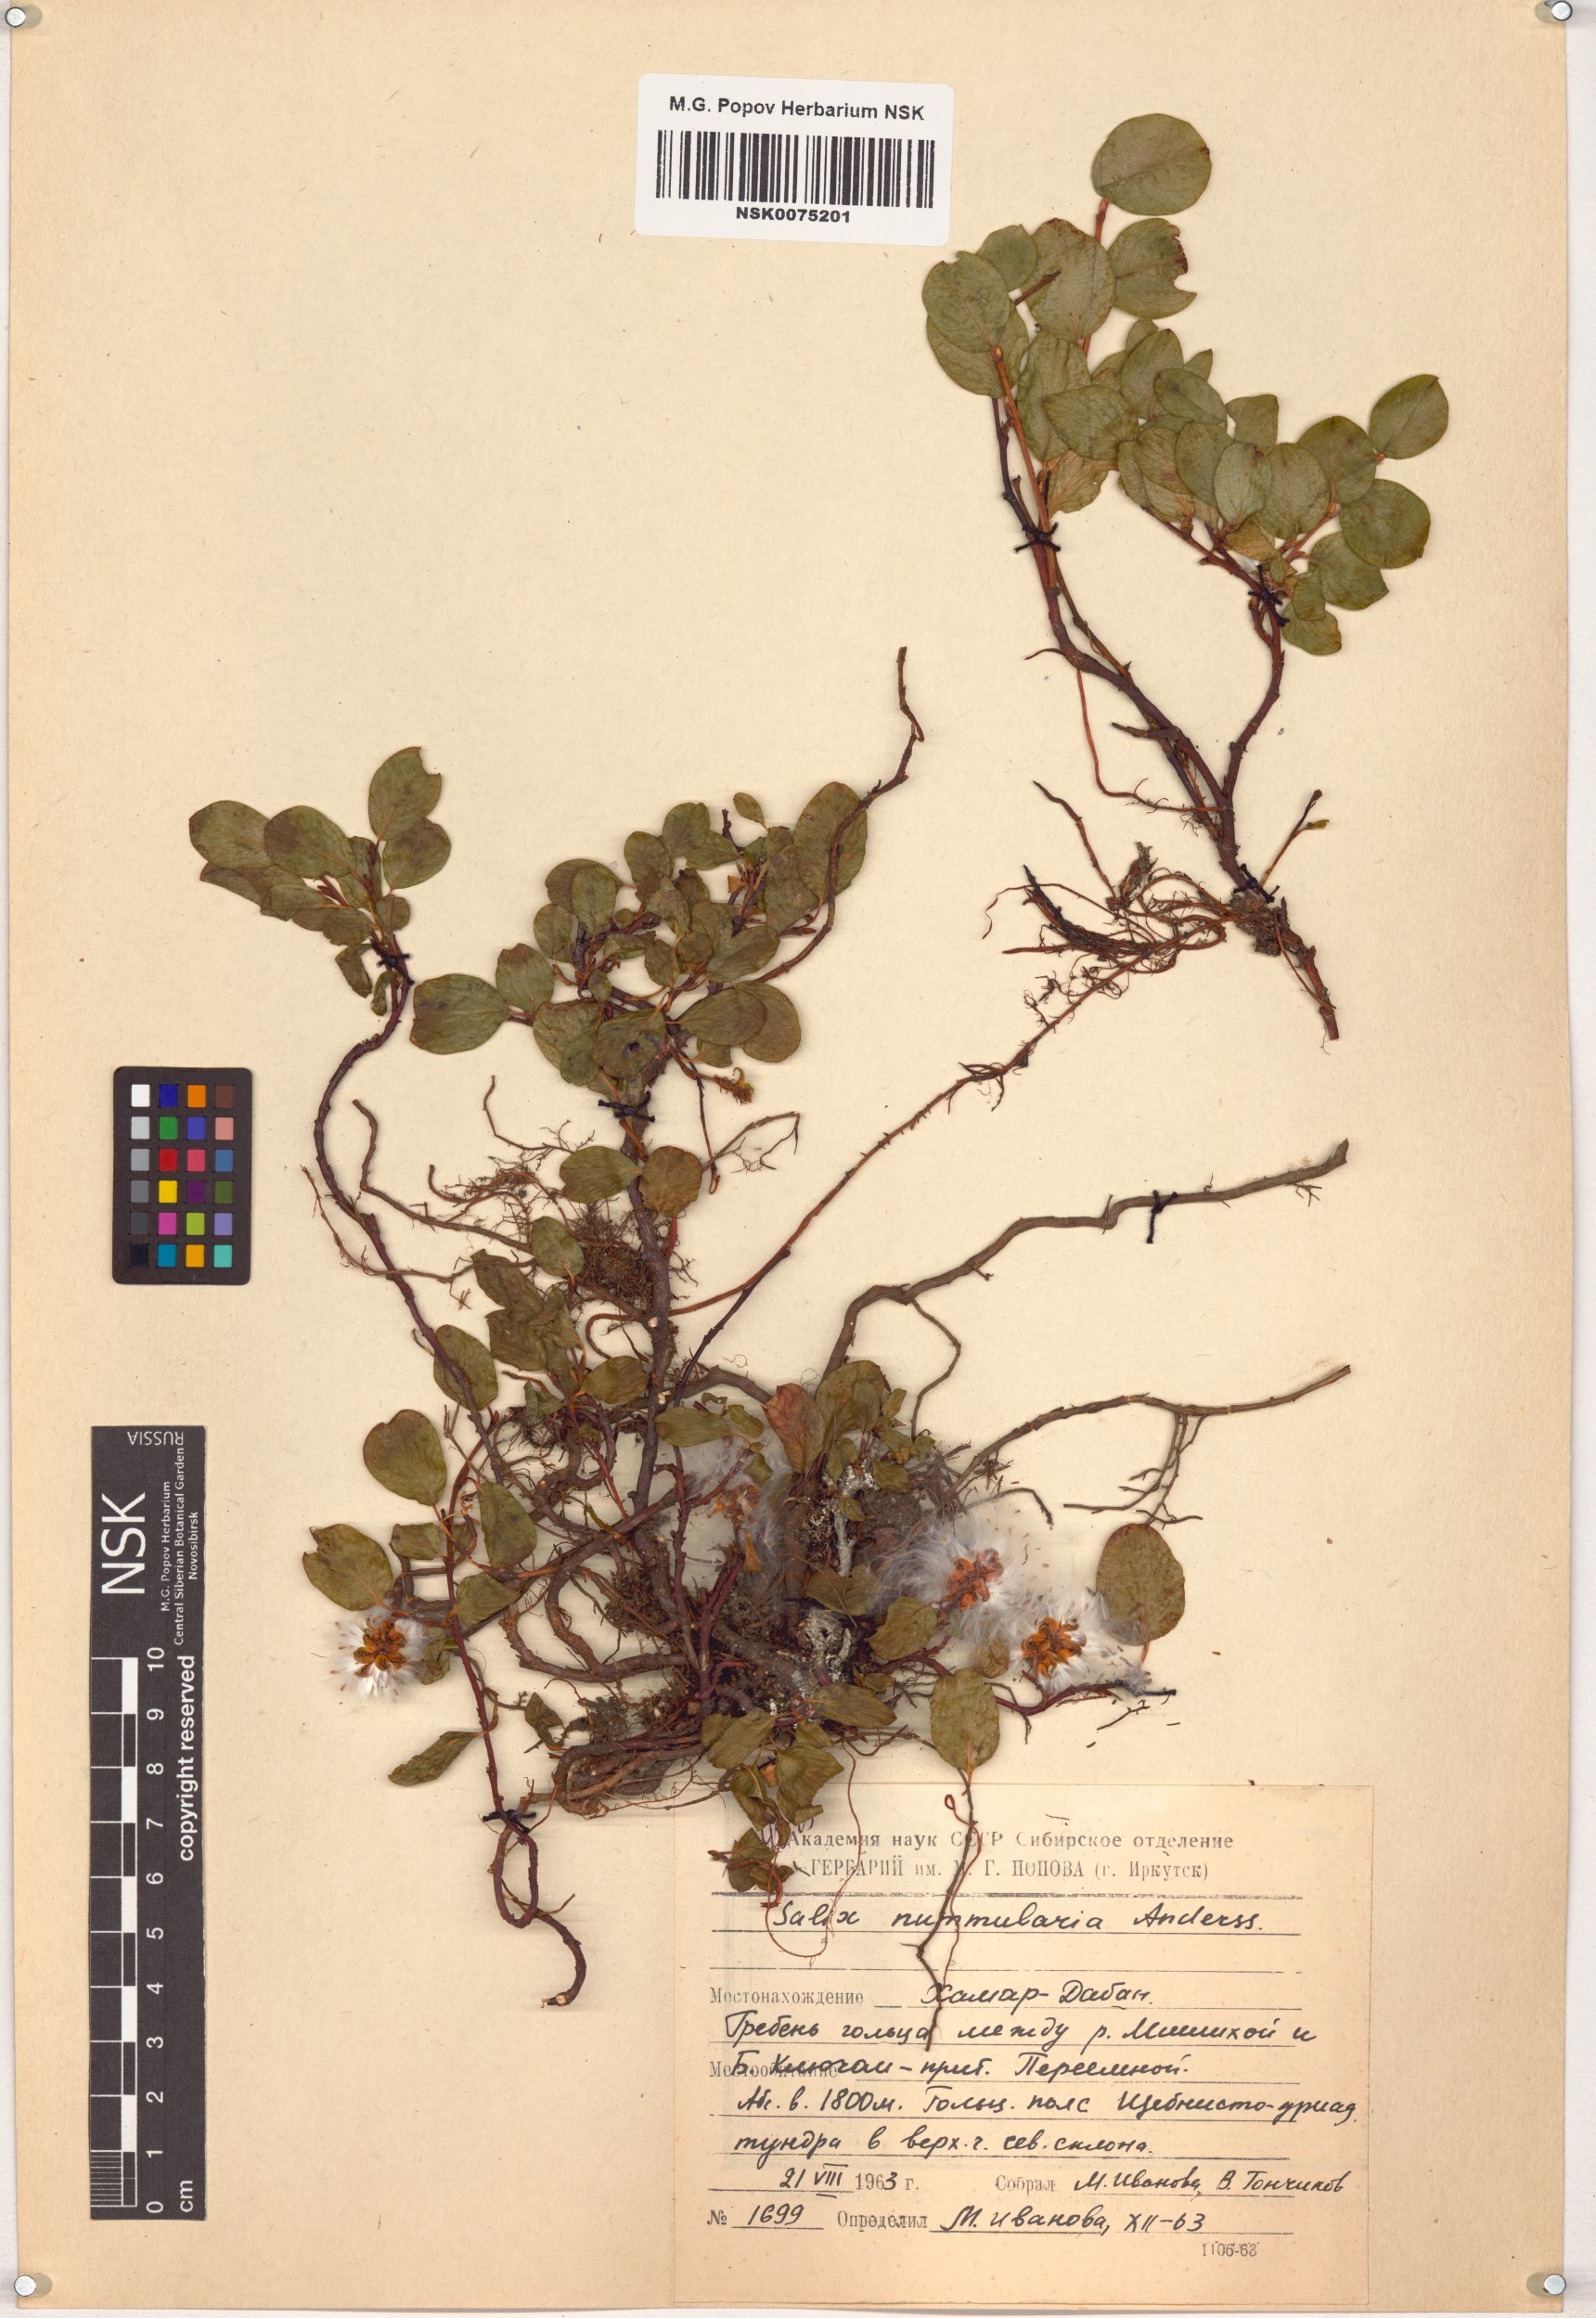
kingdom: Plantae
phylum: Tracheophyta
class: Magnoliopsida
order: Malpighiales
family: Salicaceae
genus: Salix
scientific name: Salix nummularia
